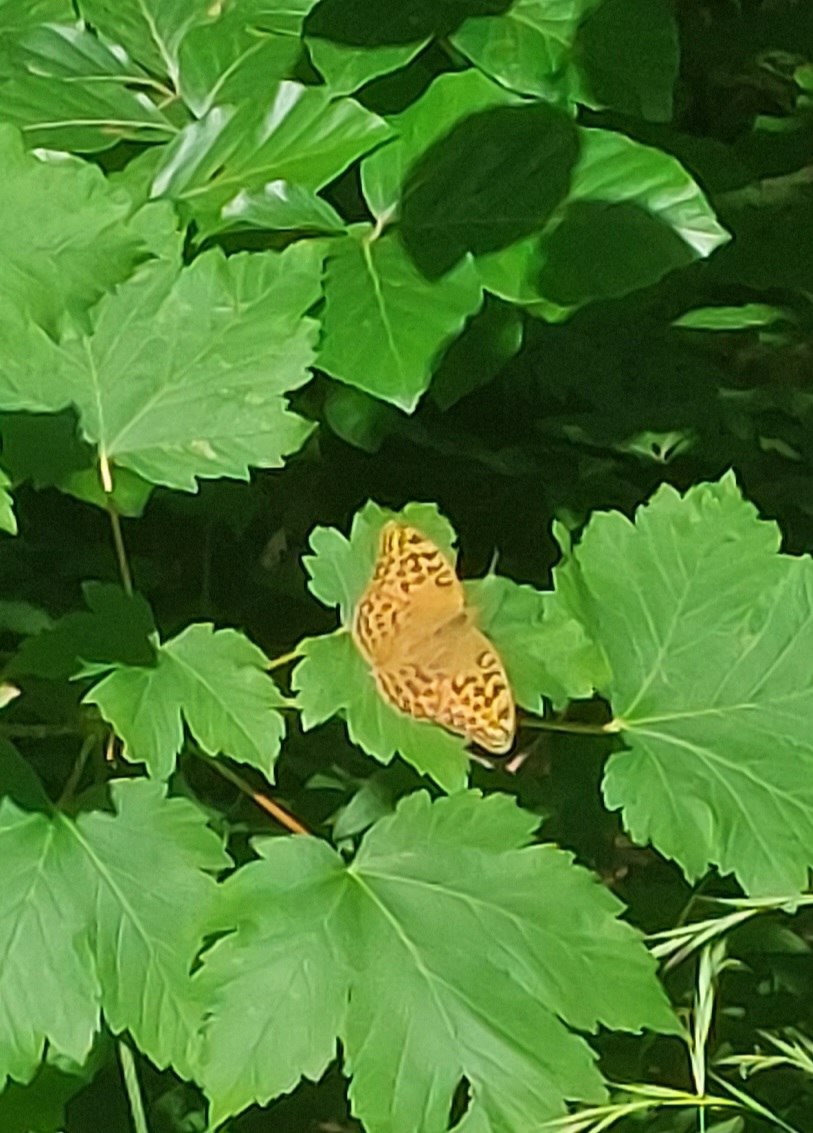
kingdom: Animalia
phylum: Arthropoda
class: Insecta
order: Lepidoptera
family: Nymphalidae
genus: Argynnis
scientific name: Argynnis paphia
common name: Kejserkåbe
